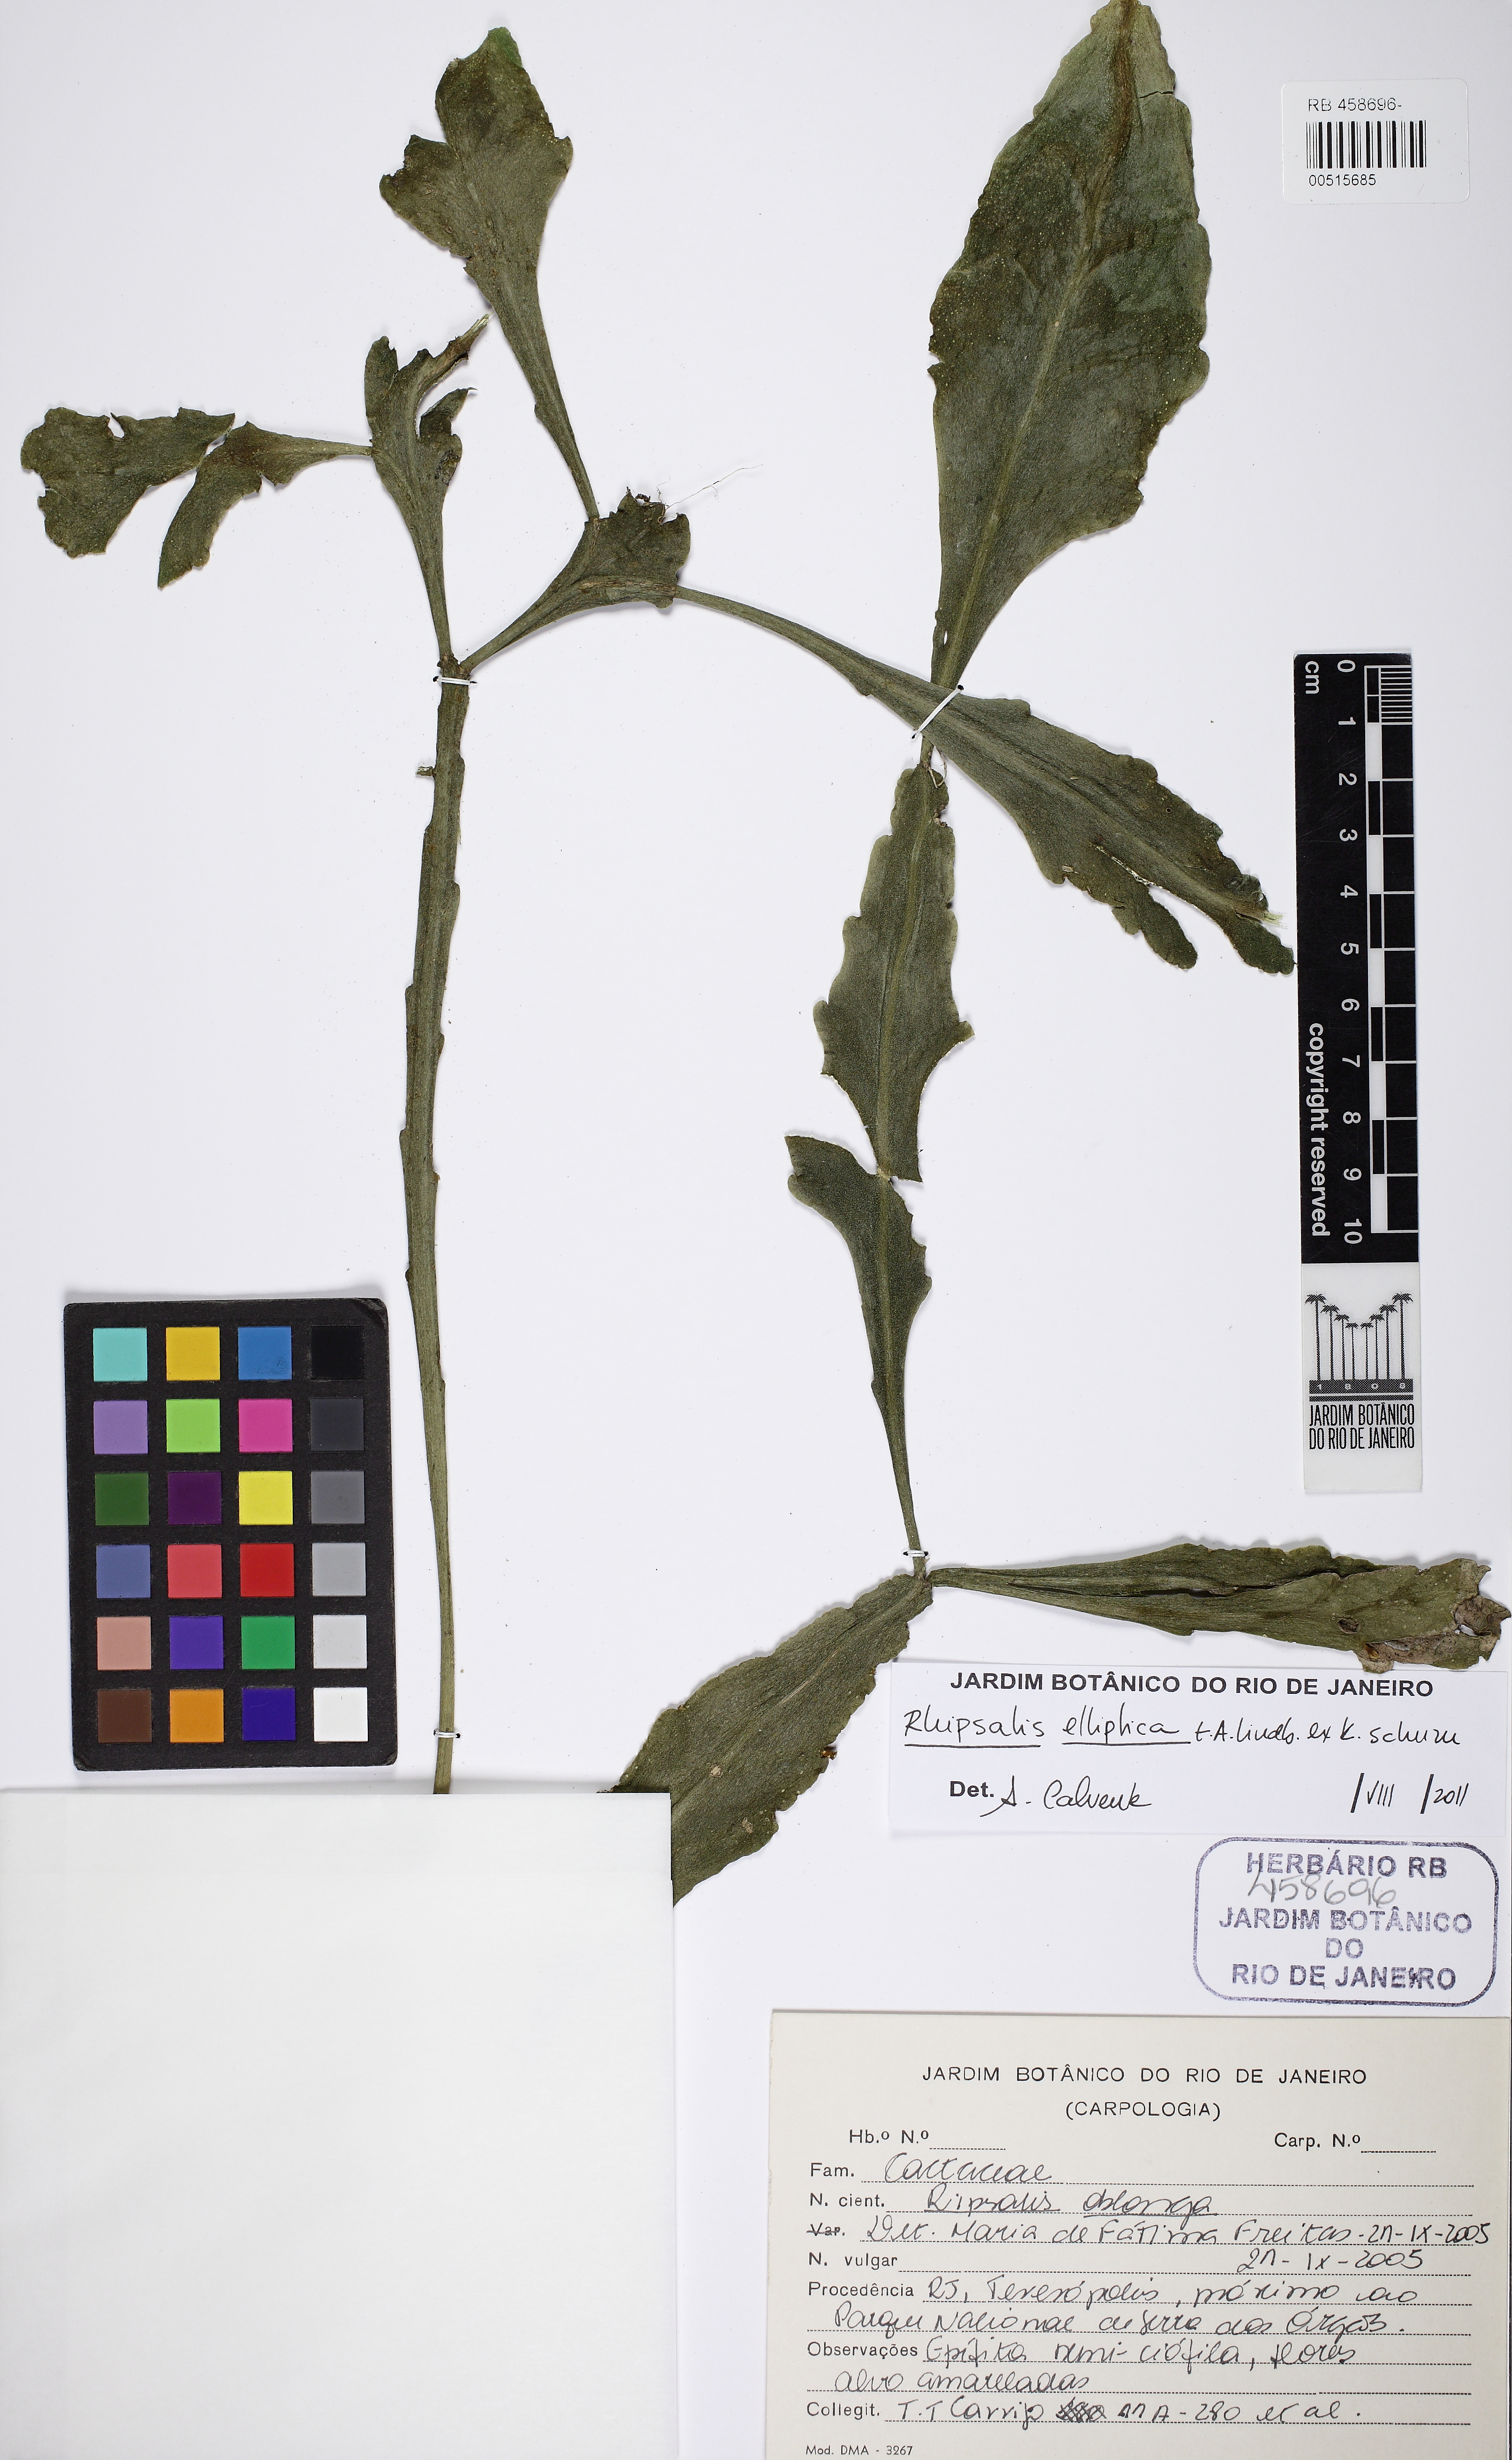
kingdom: Plantae
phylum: Tracheophyta
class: Magnoliopsida
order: Caryophyllales
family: Cactaceae
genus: Rhipsalis
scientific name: Rhipsalis elliptica
